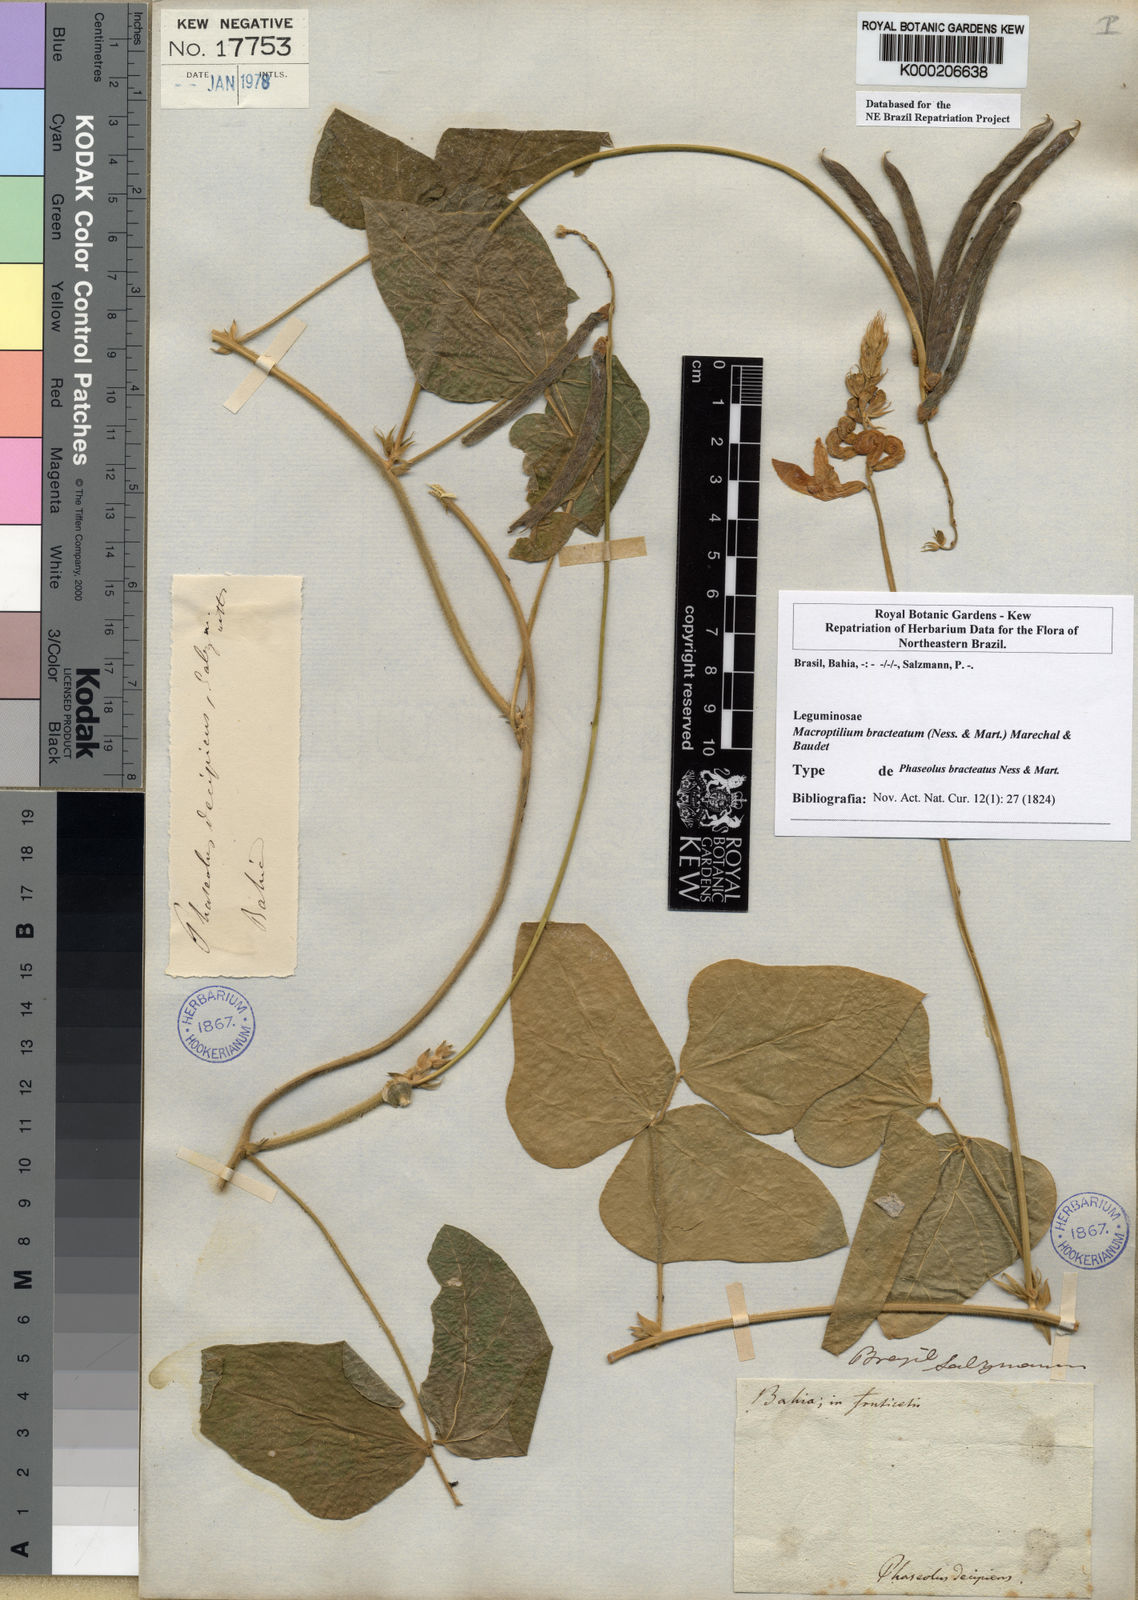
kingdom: Plantae
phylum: Tracheophyta
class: Magnoliopsida
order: Fabales
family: Fabaceae
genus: Macroptilium
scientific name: Macroptilium
